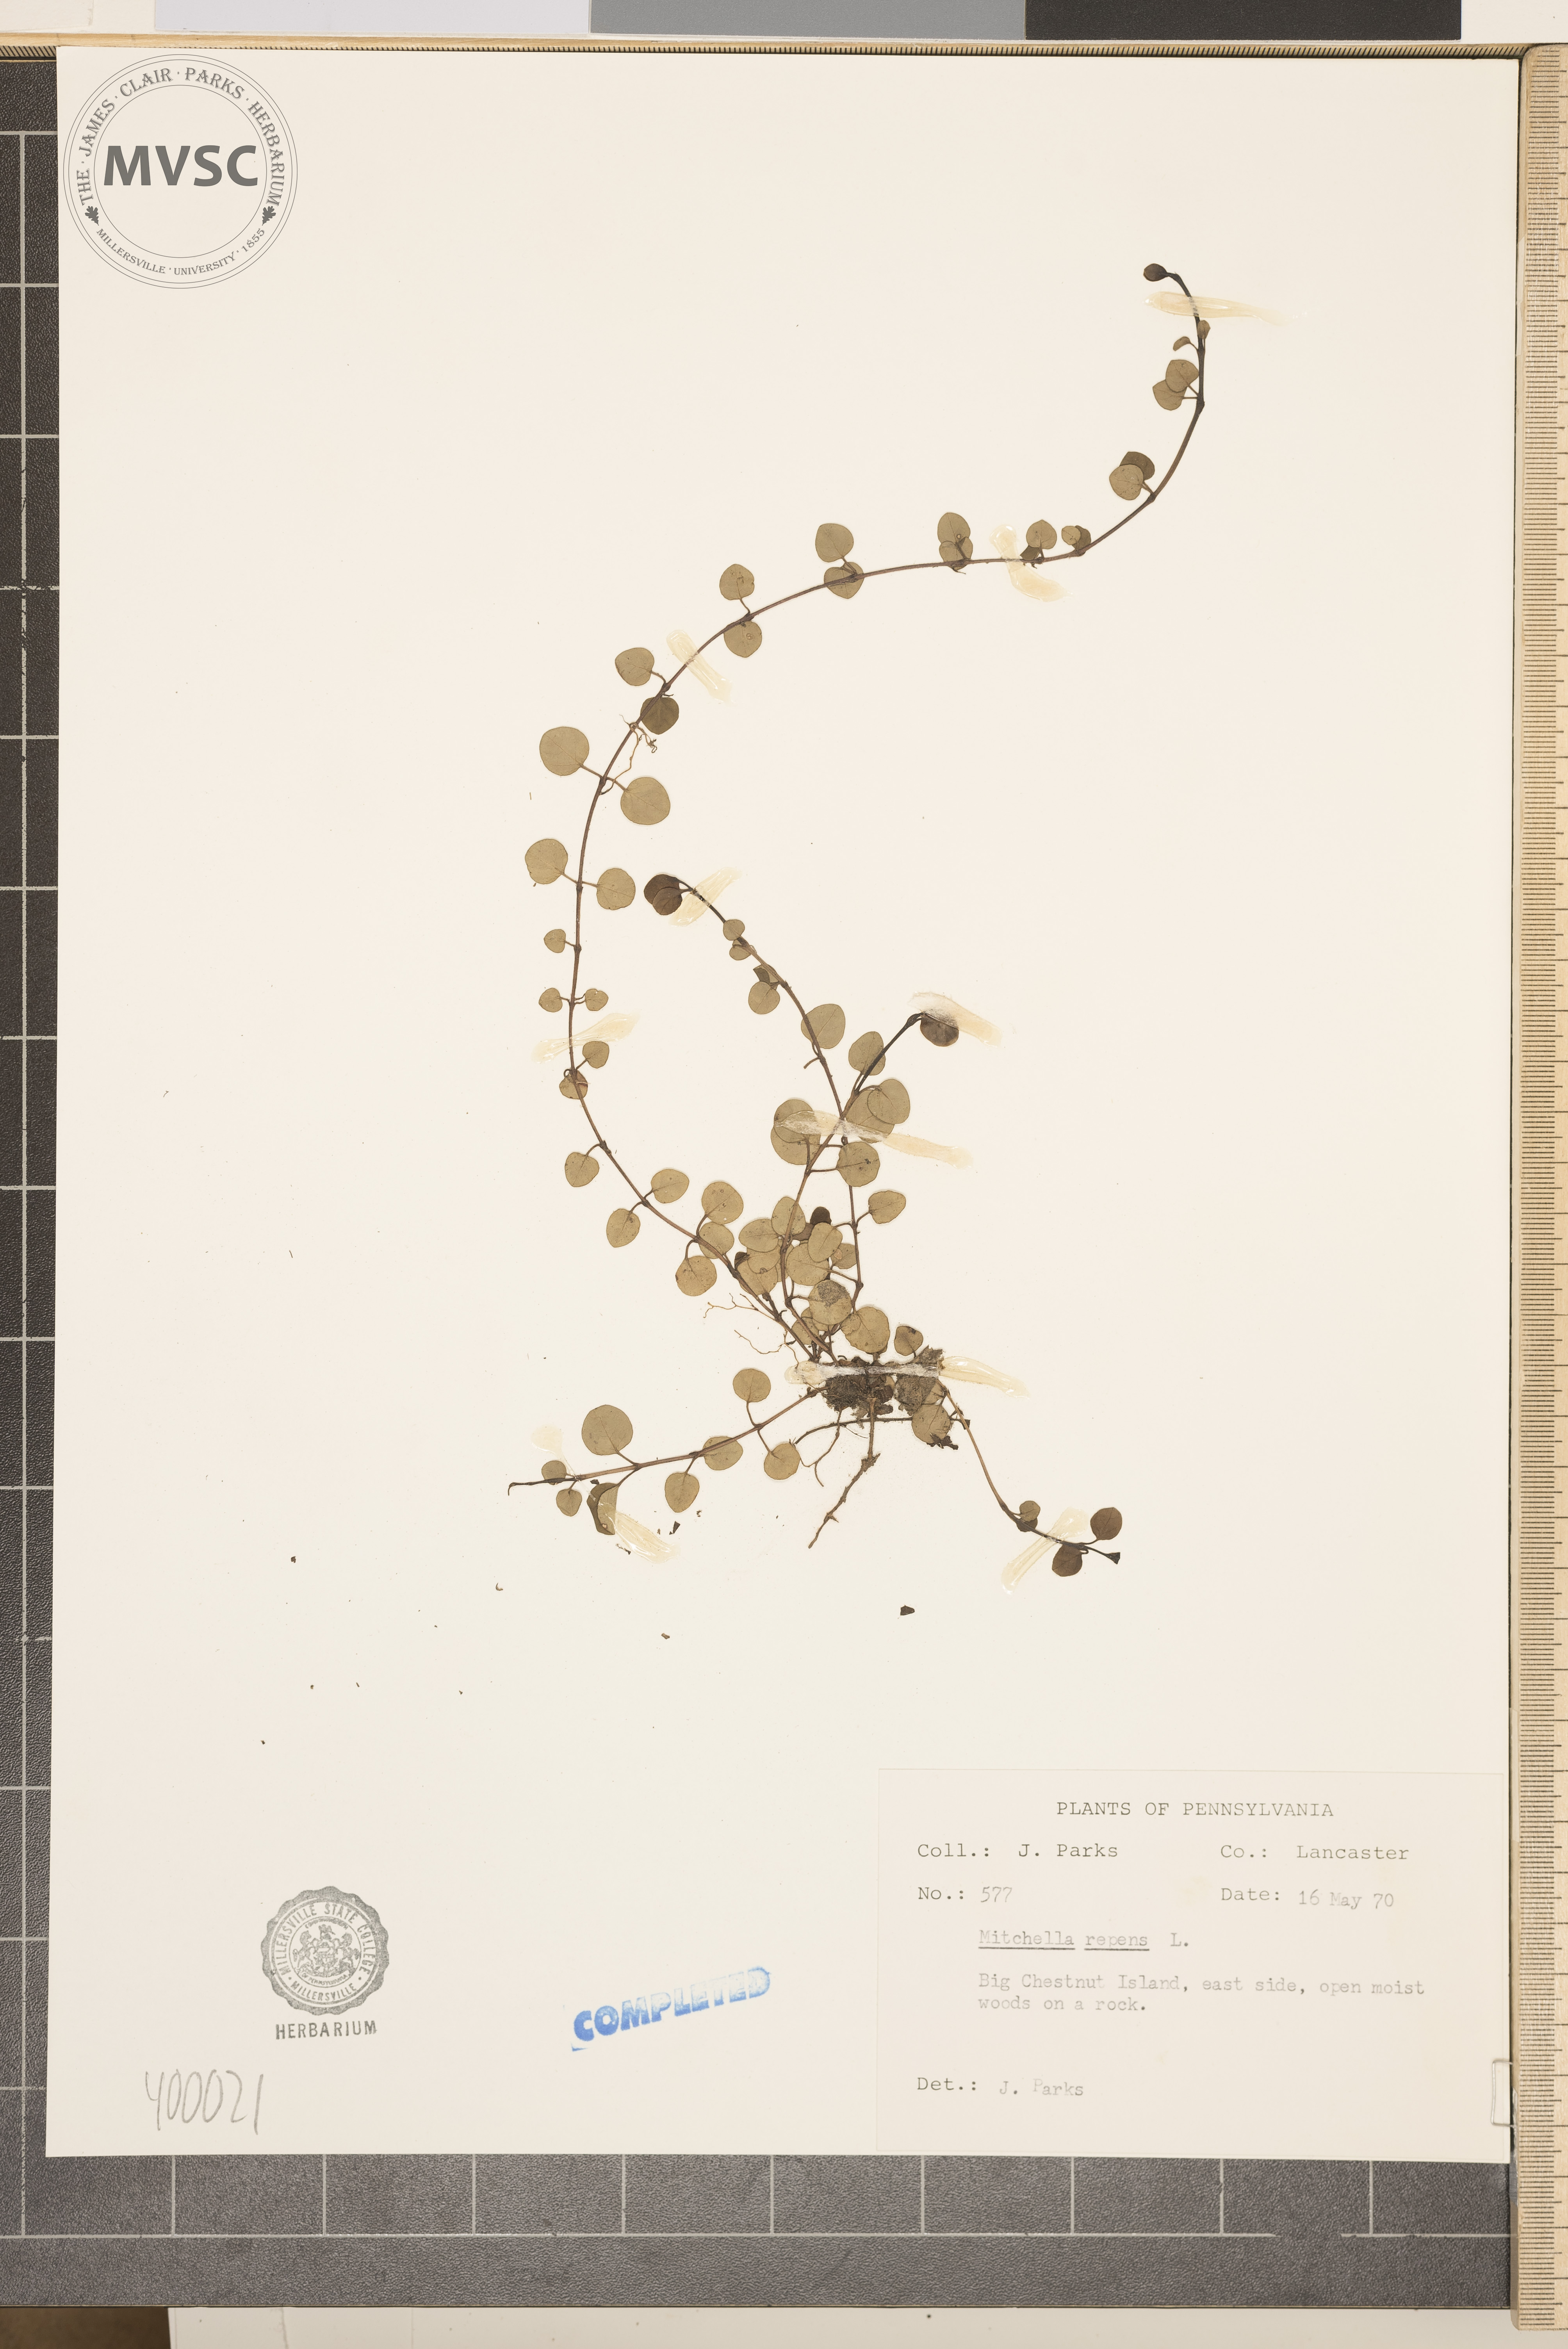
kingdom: Plantae
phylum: Tracheophyta
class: Magnoliopsida
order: Gentianales
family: Rubiaceae
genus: Mitchella
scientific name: Mitchella repens
